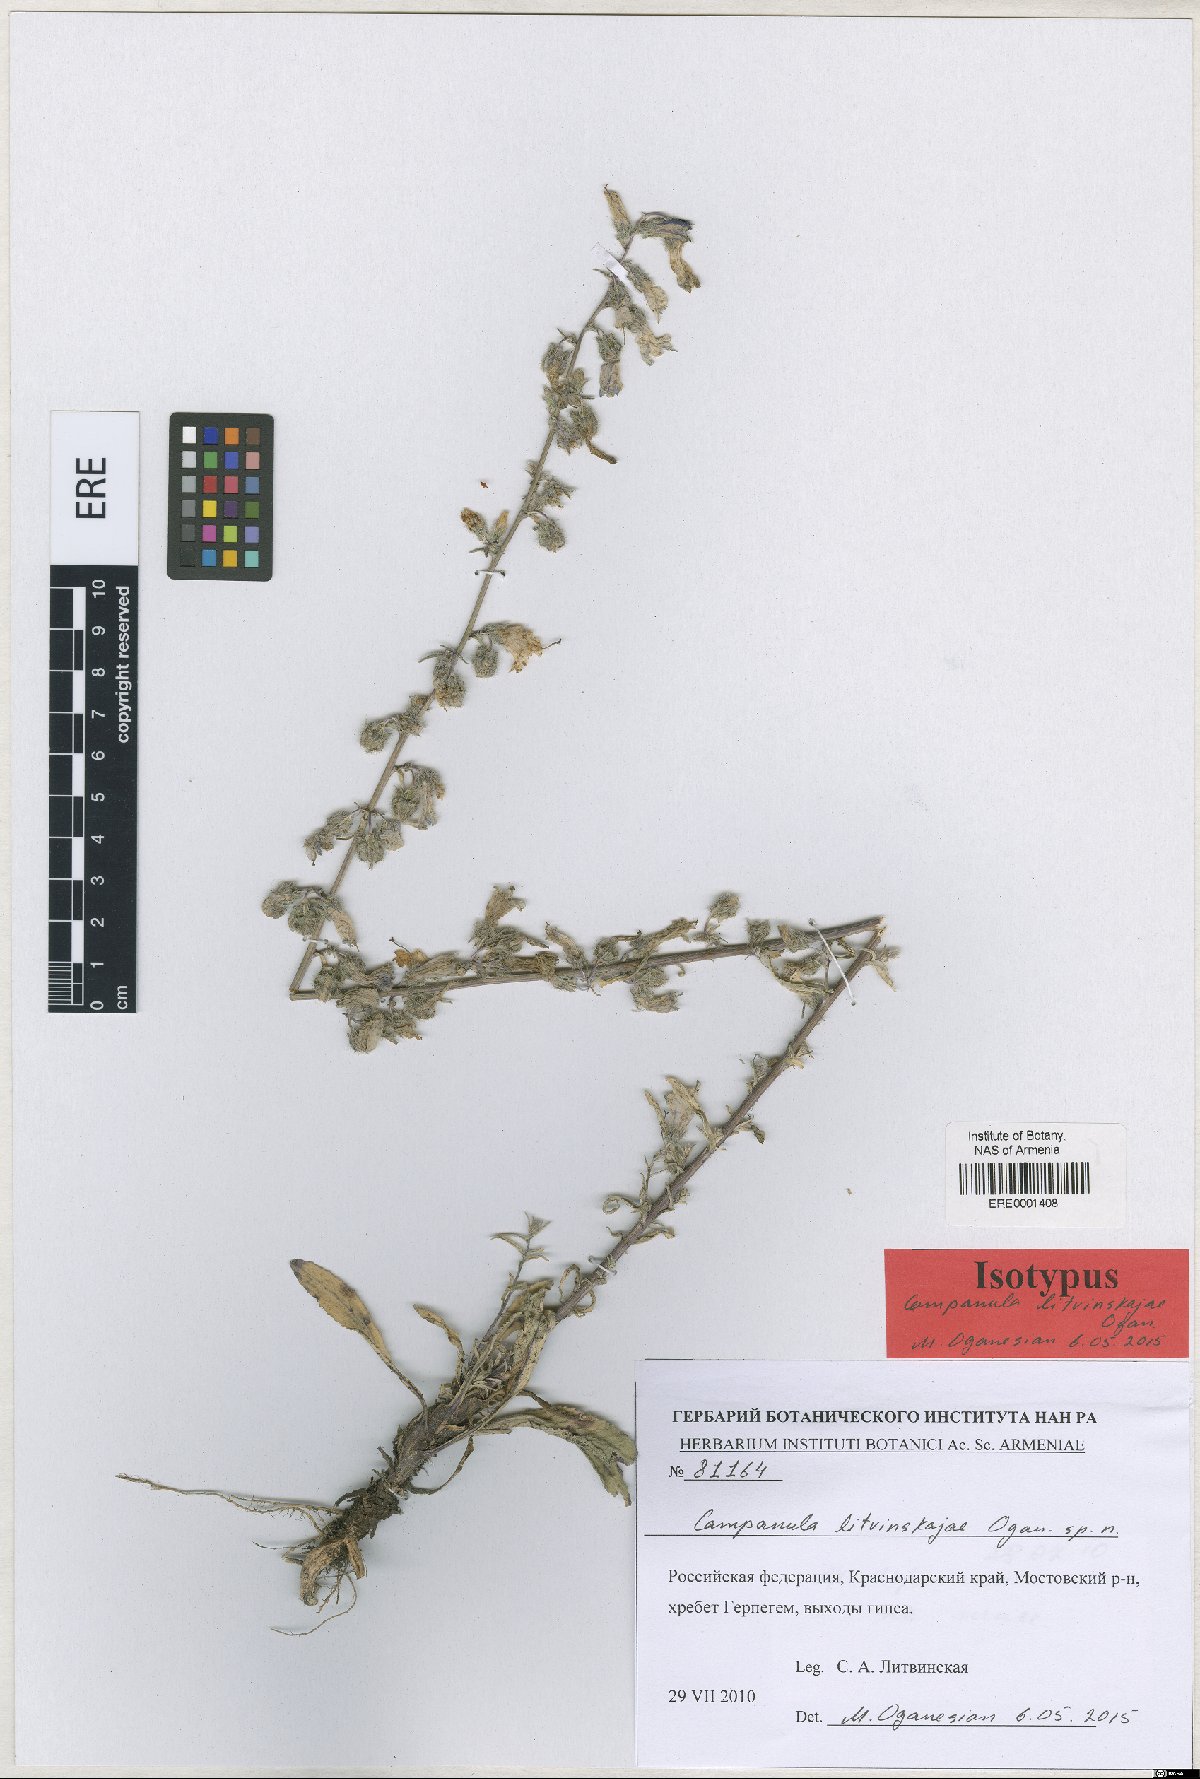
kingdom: Plantae
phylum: Tracheophyta
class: Magnoliopsida
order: Asterales
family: Campanulaceae
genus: Campanula
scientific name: Campanula litvinskajae
